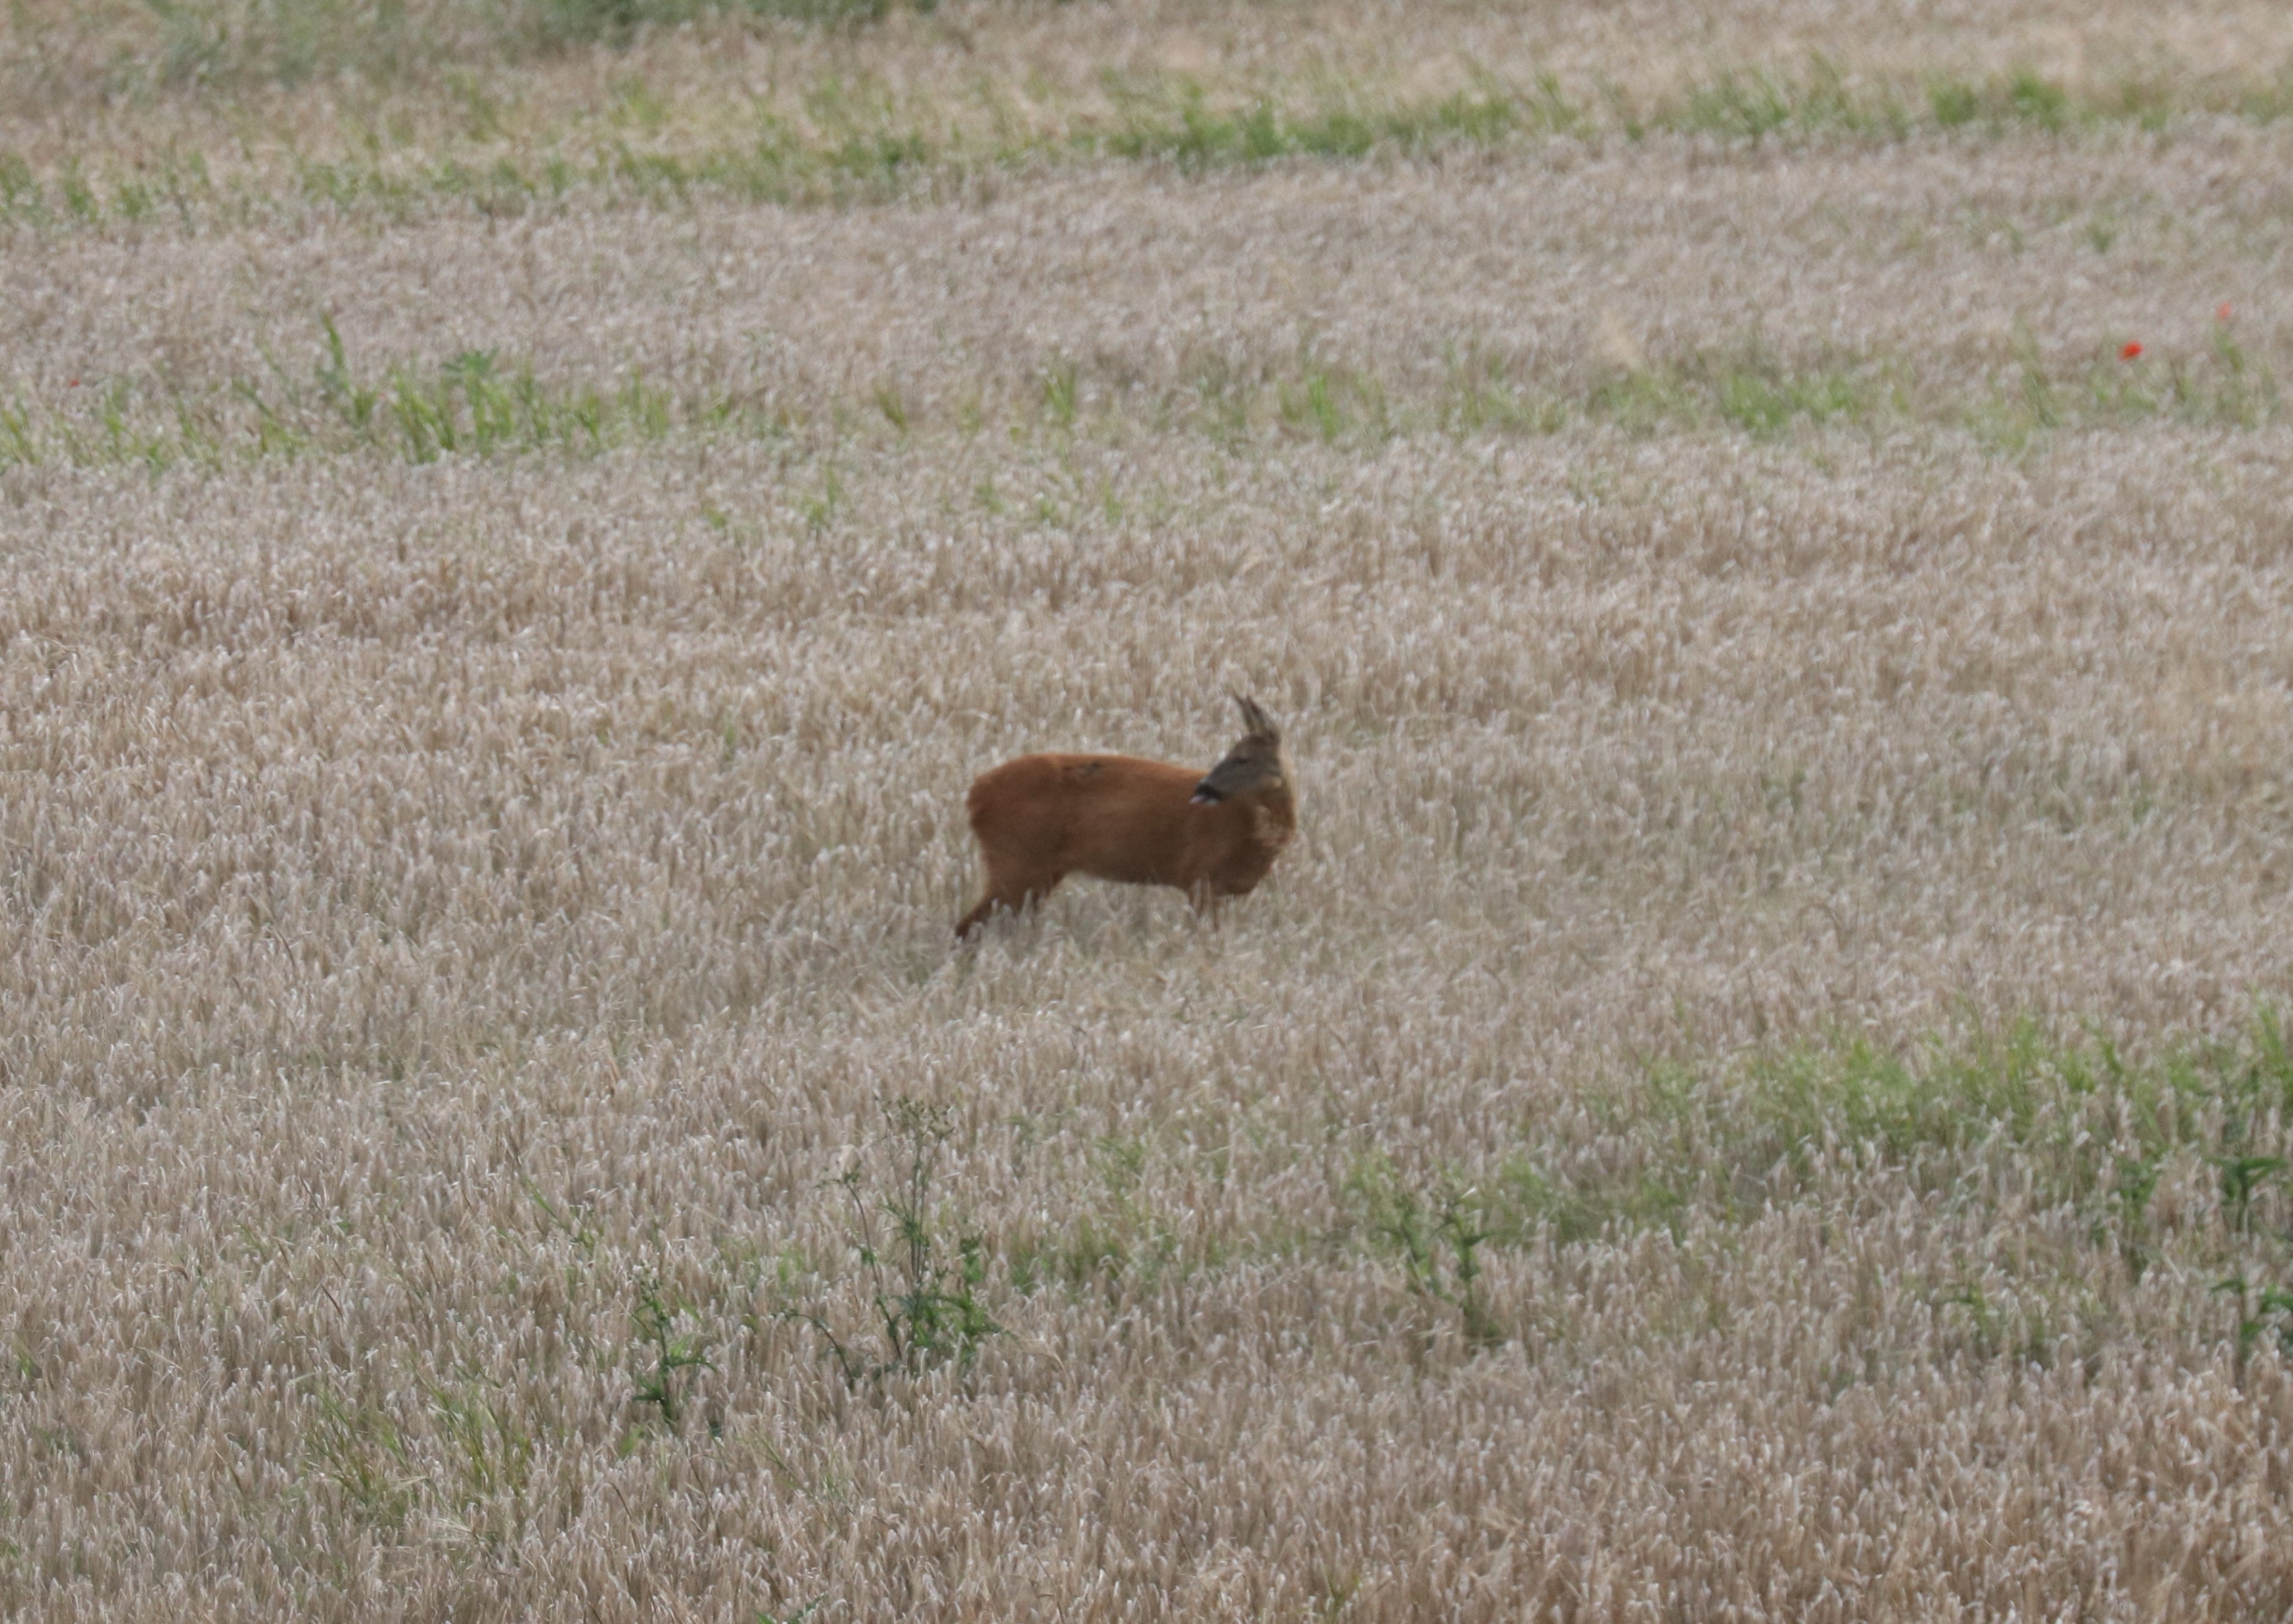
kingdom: Animalia
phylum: Chordata
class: Mammalia
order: Artiodactyla
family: Cervidae
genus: Capreolus
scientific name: Capreolus capreolus
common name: Rådyr
